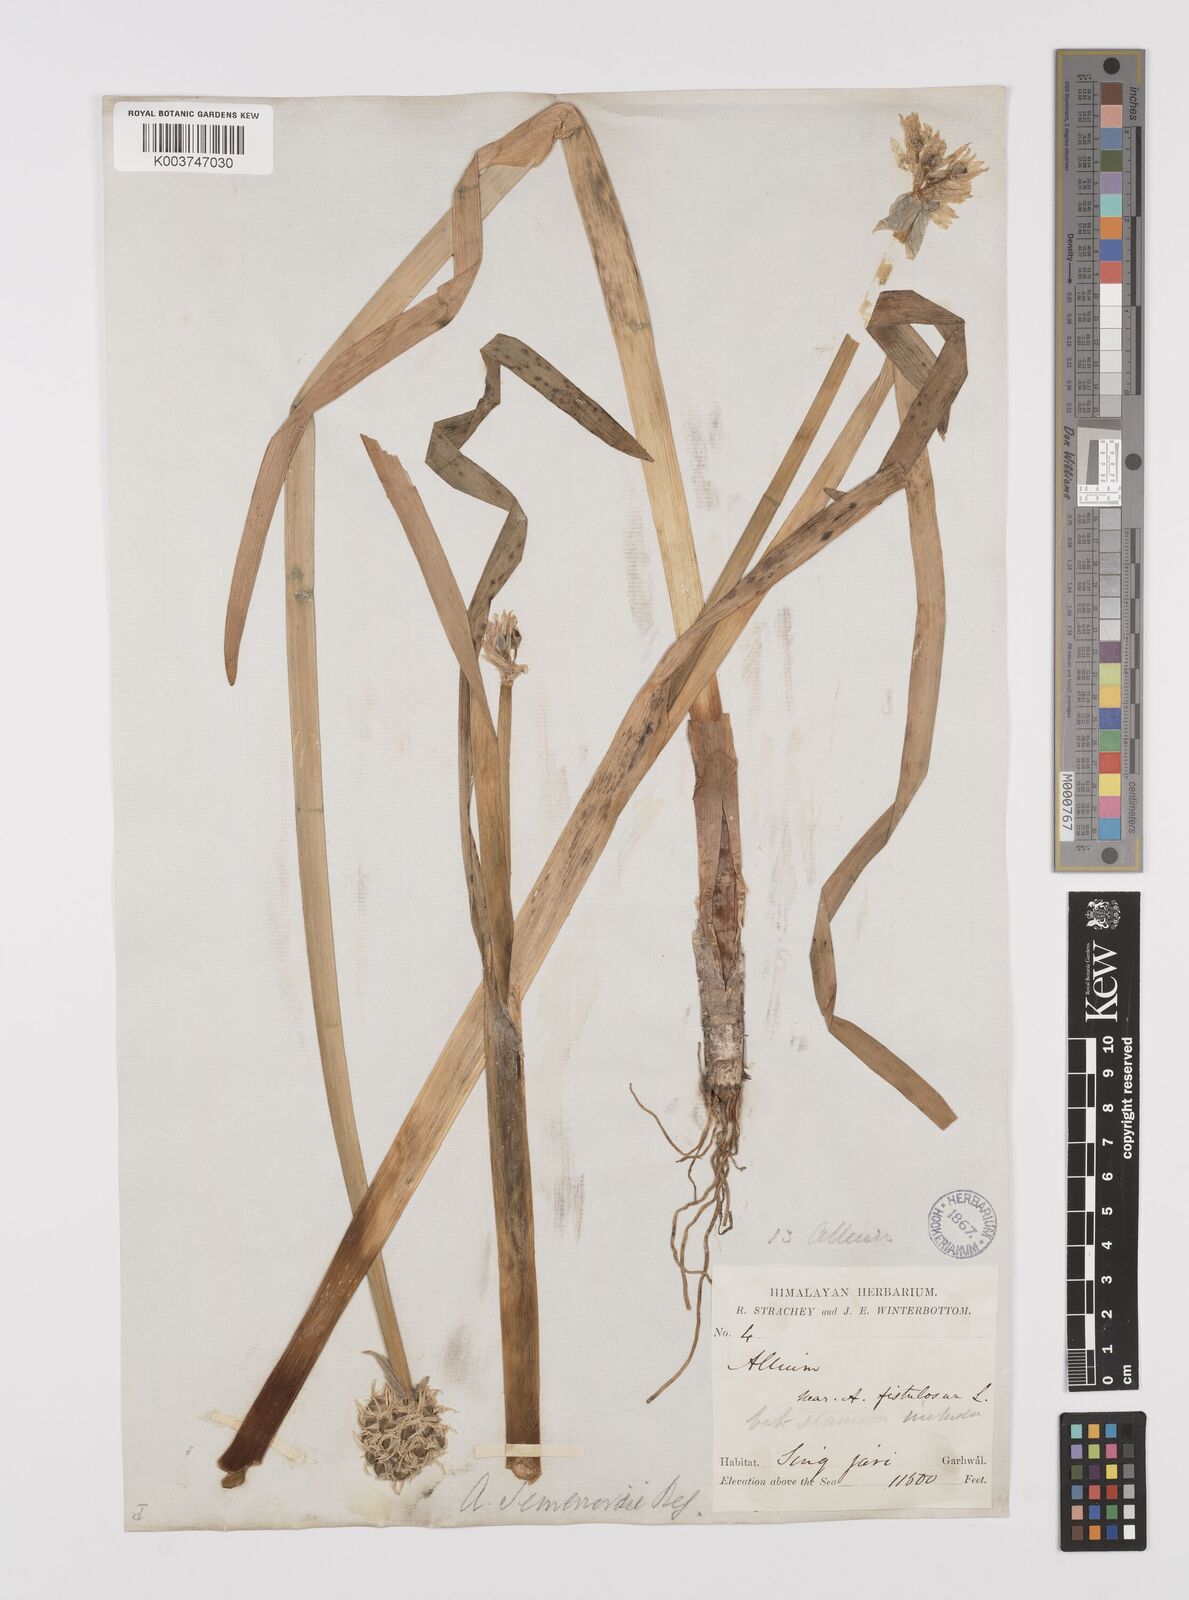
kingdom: Plantae
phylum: Tracheophyta
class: Liliopsida
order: Asparagales
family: Amaryllidaceae
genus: Allium
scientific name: Allium semenovii
